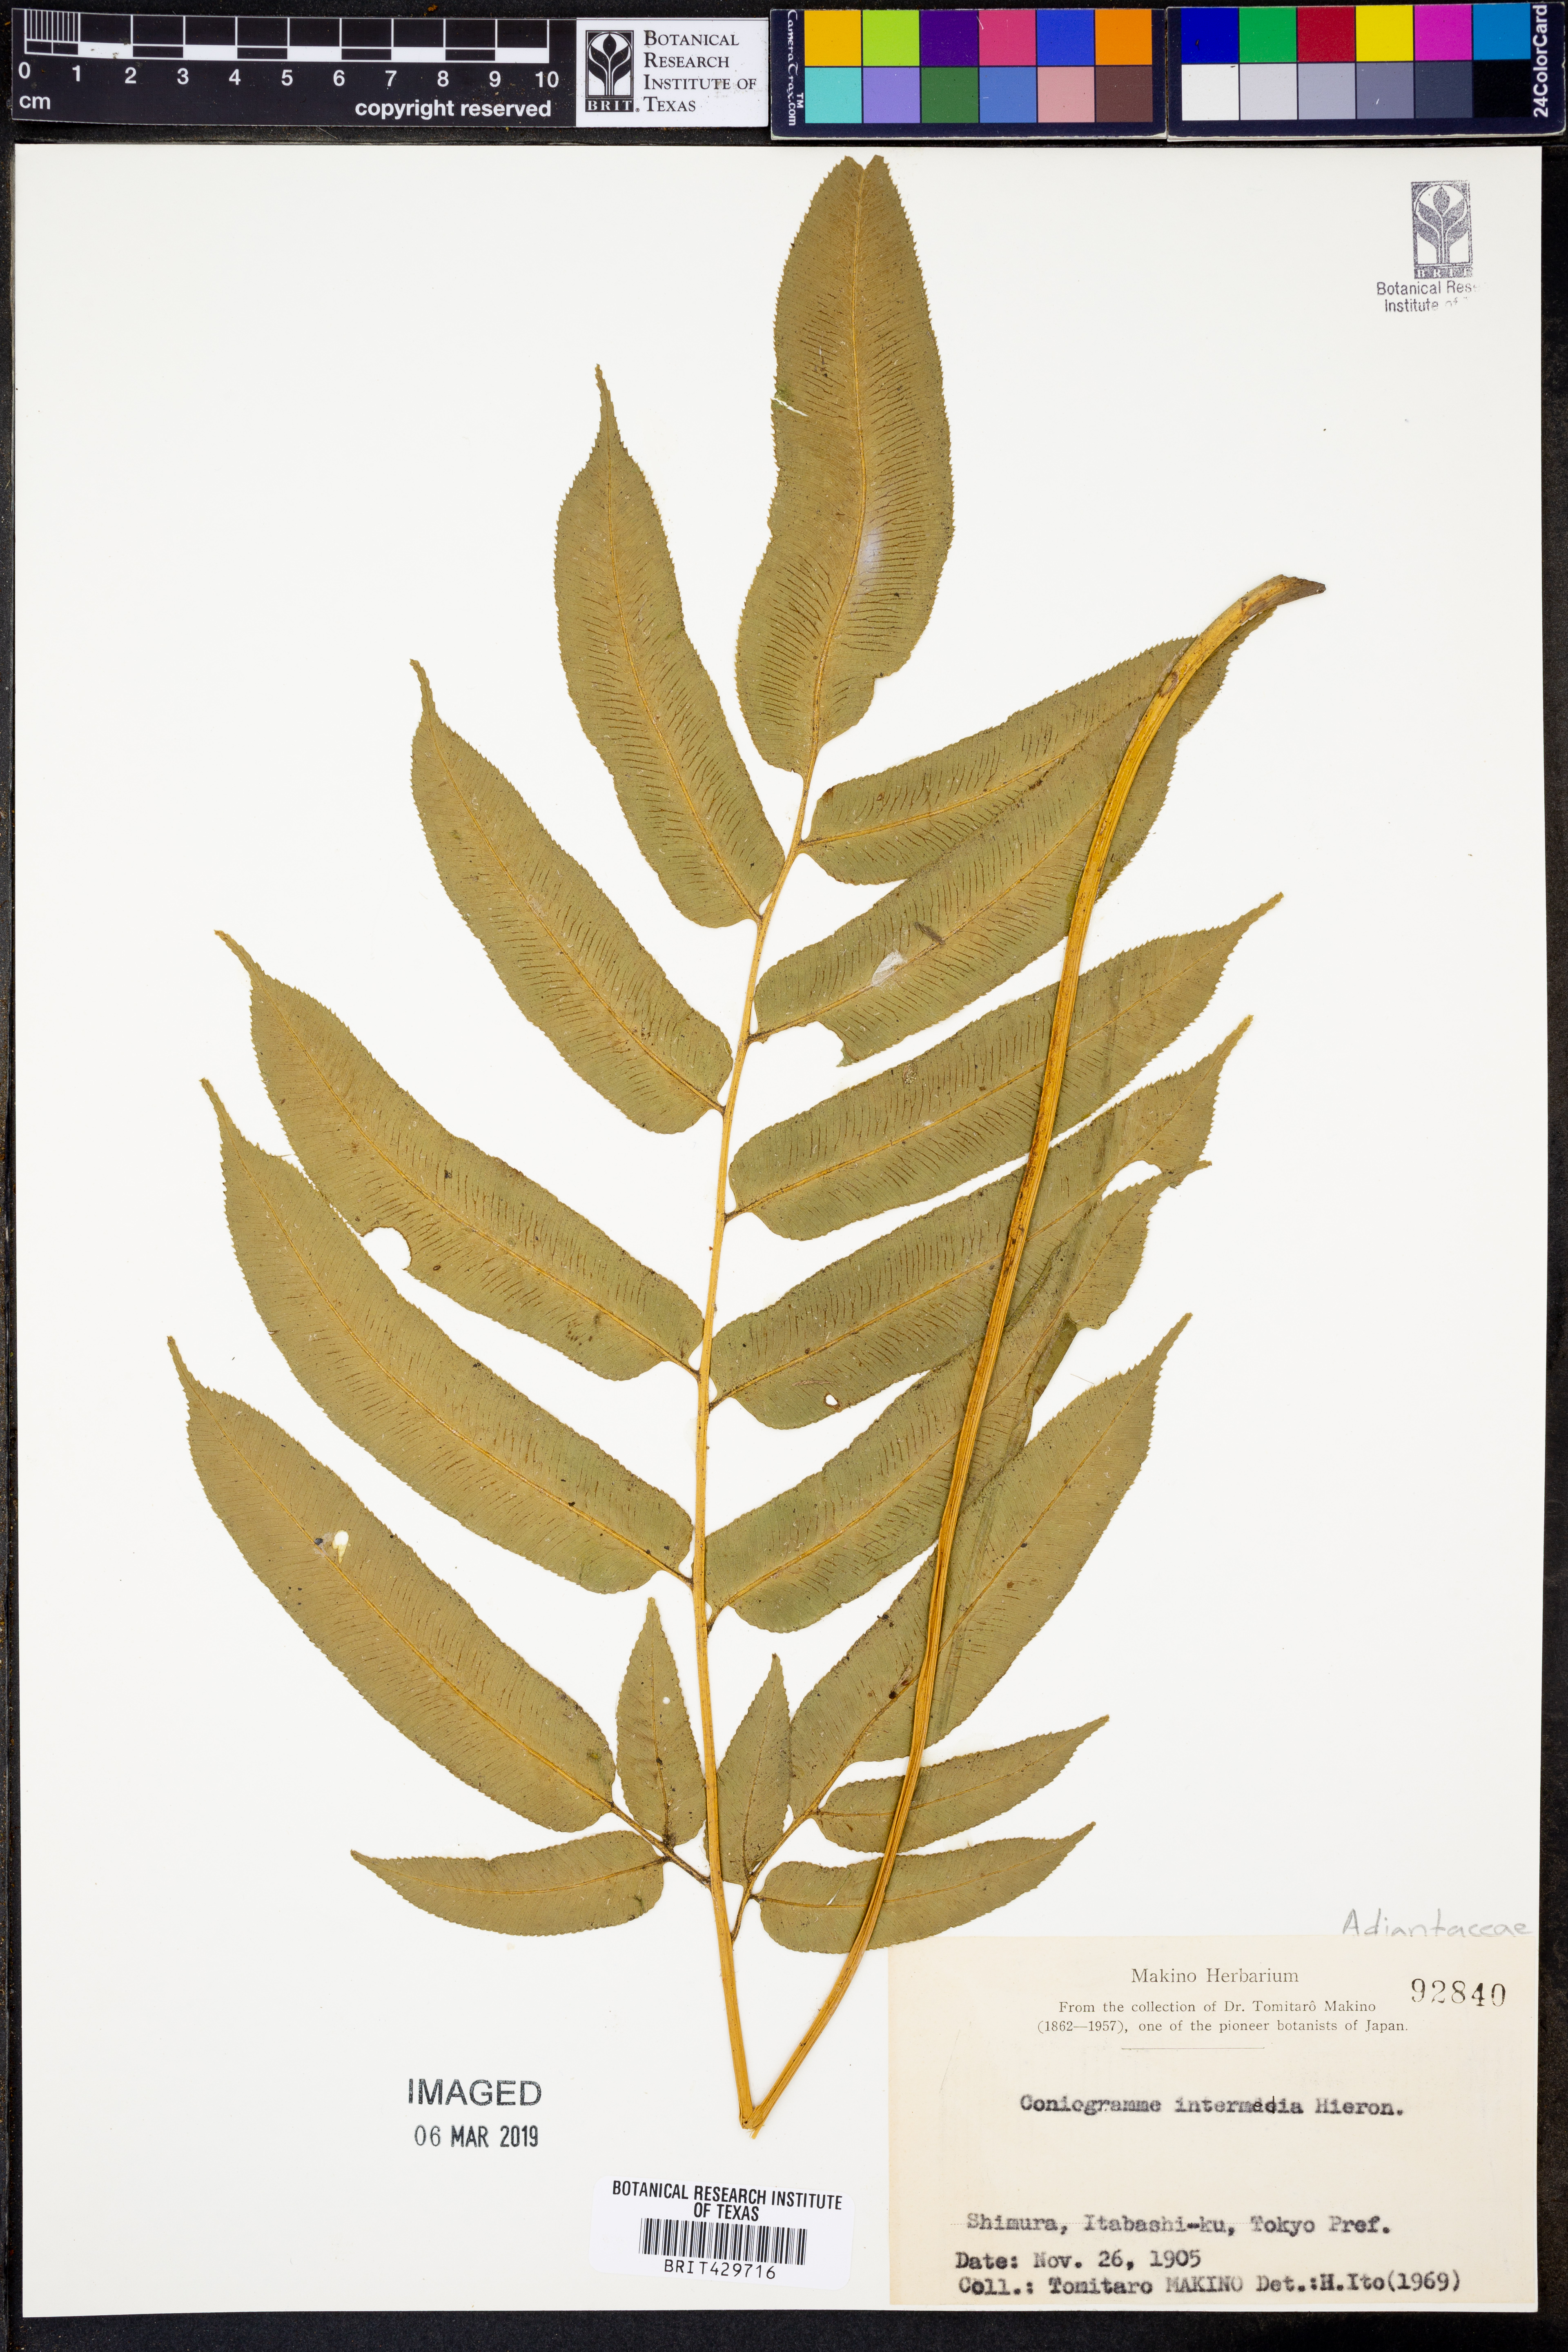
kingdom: Plantae
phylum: Tracheophyta
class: Polypodiopsida
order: Polypodiales
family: Pteridaceae
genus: Coniogramme
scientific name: Coniogramme intermedia
